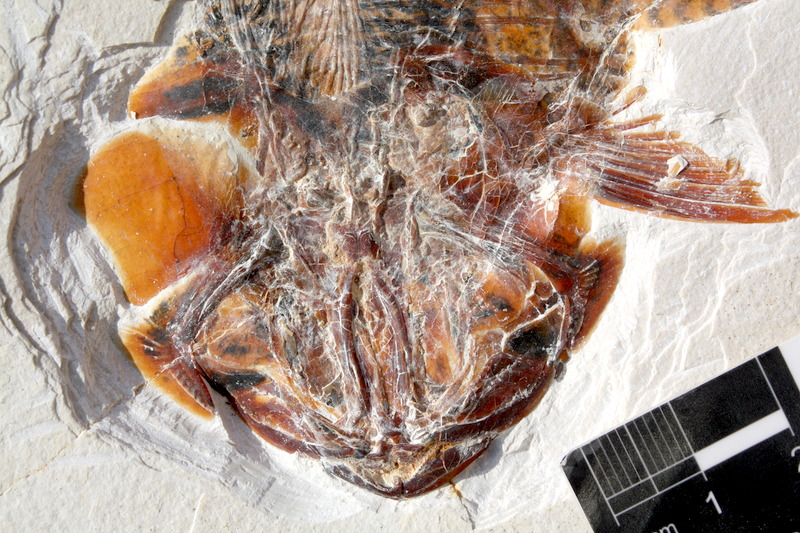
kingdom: Animalia
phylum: Chordata
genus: Thrissops
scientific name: Thrissops formosus
